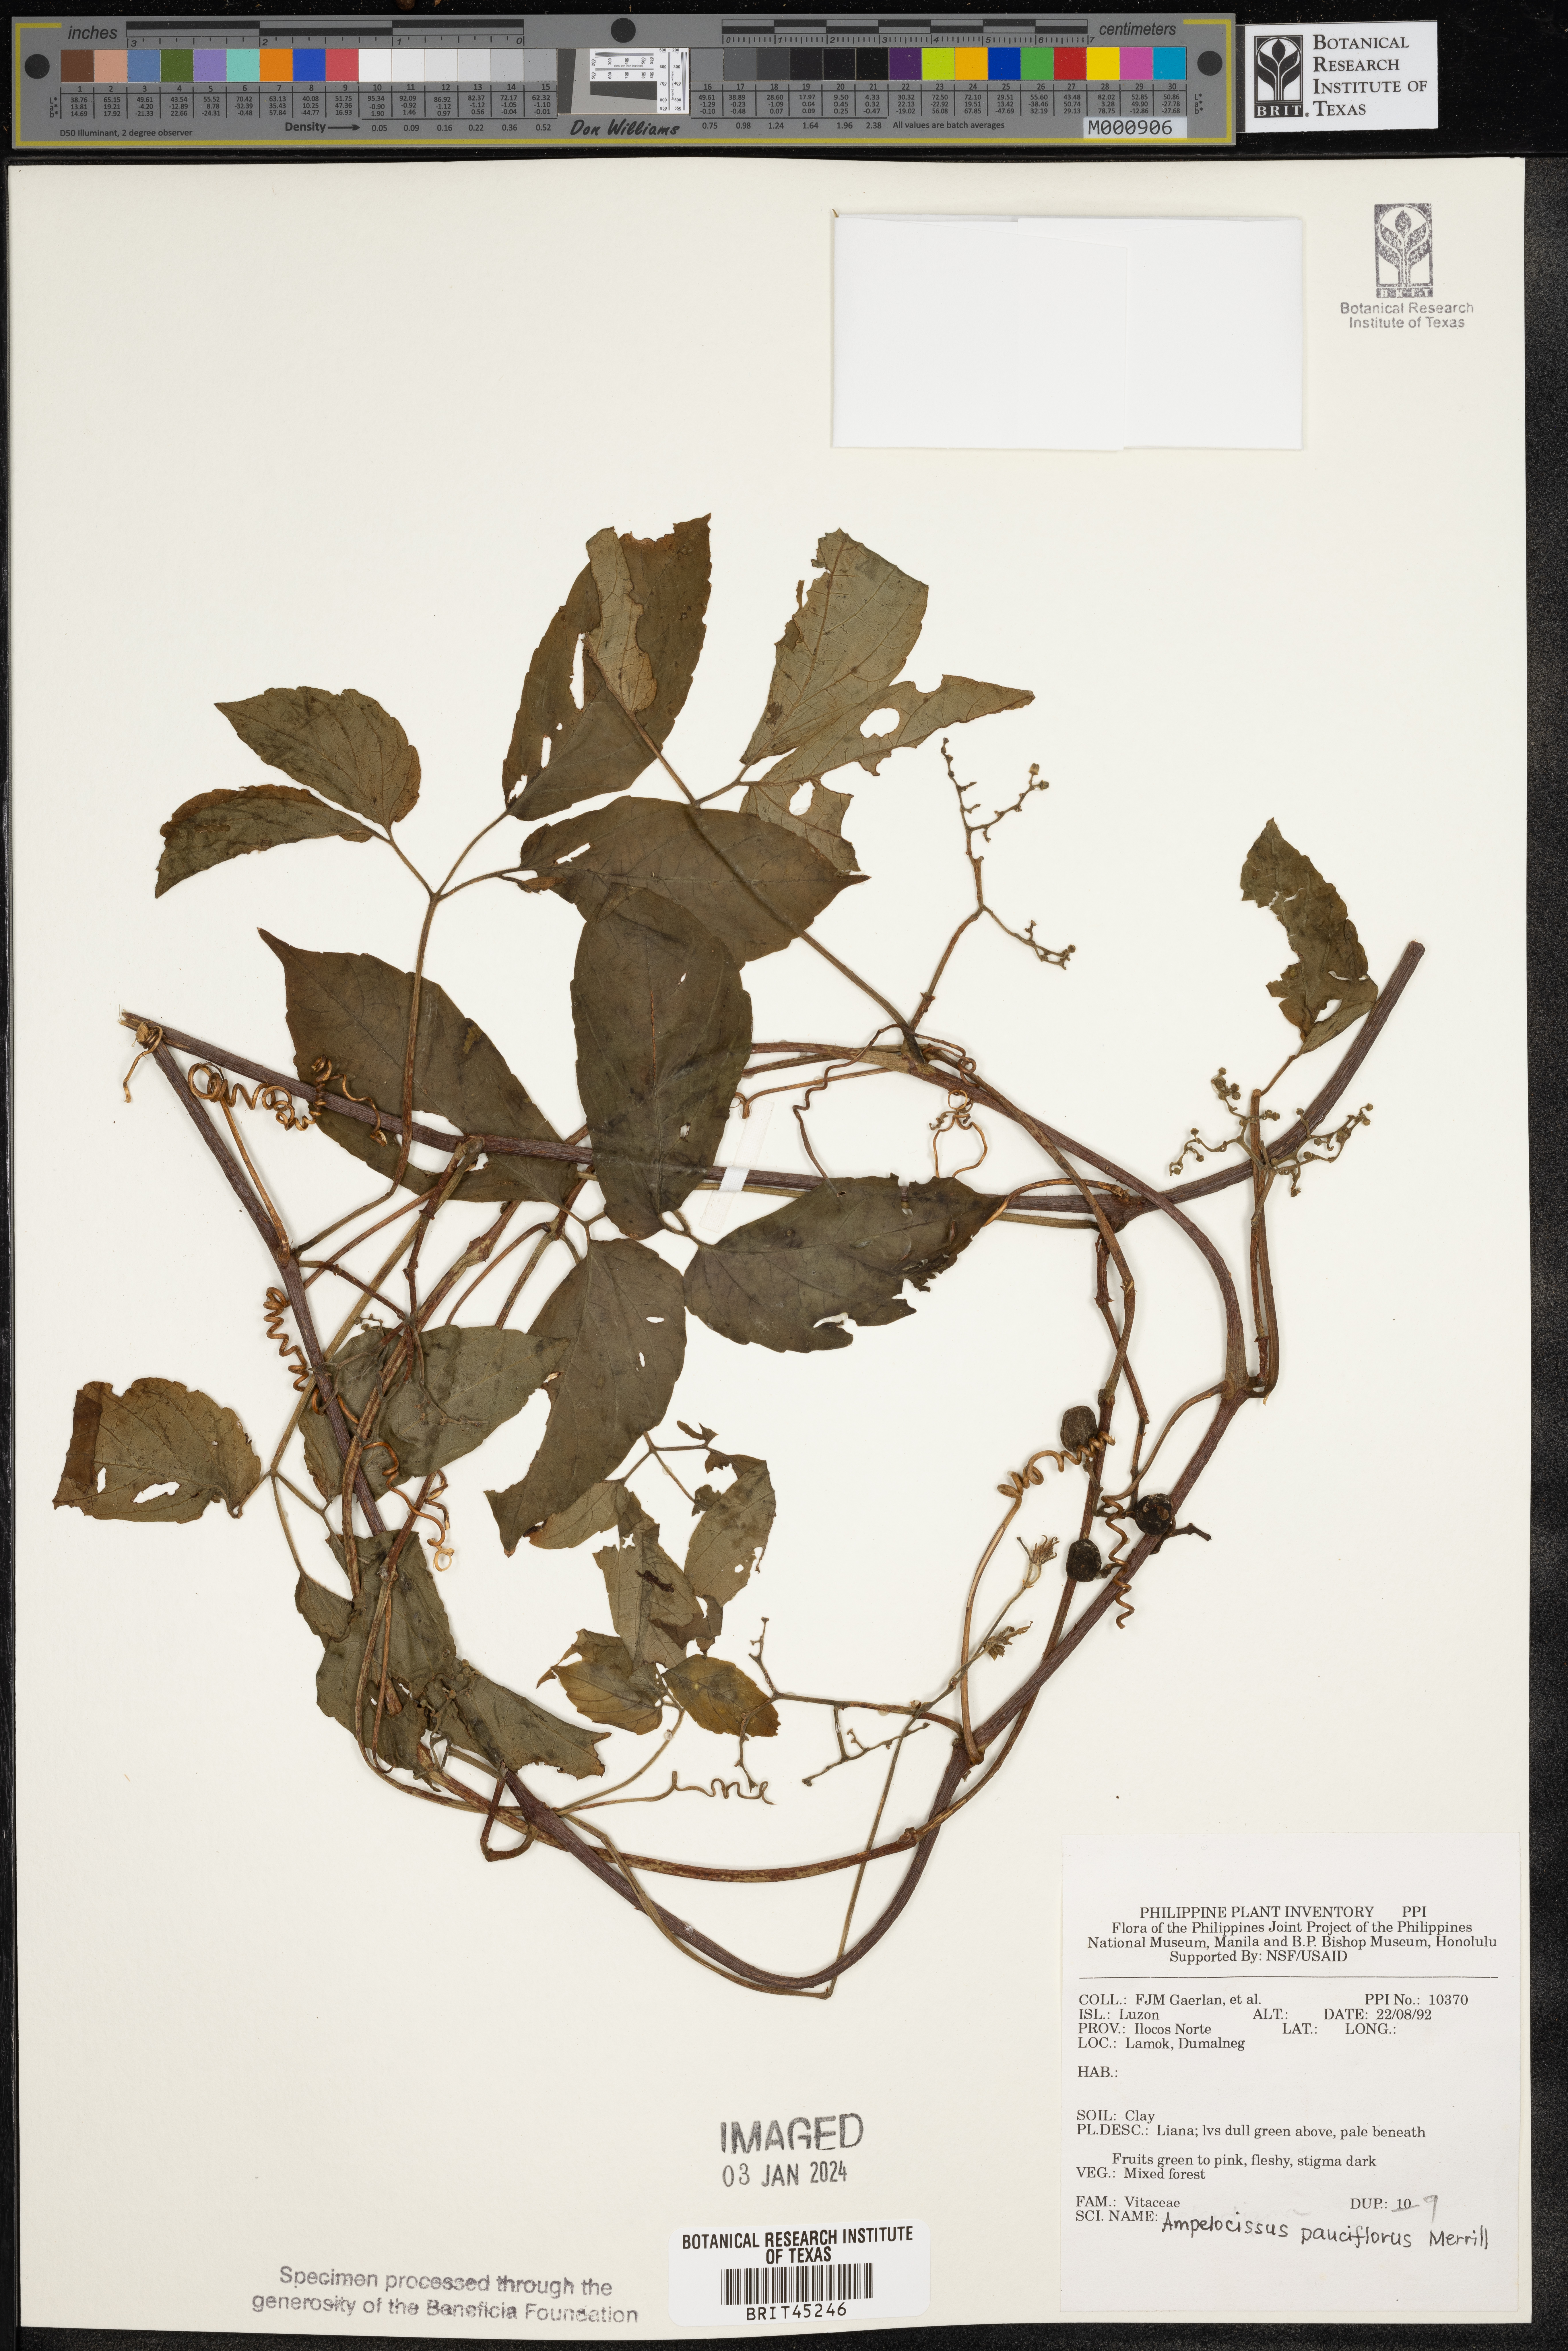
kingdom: Plantae
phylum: Tracheophyta
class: Magnoliopsida
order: Vitales
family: Vitaceae
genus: Ampelocissus
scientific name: Ampelocissus pauciflora
